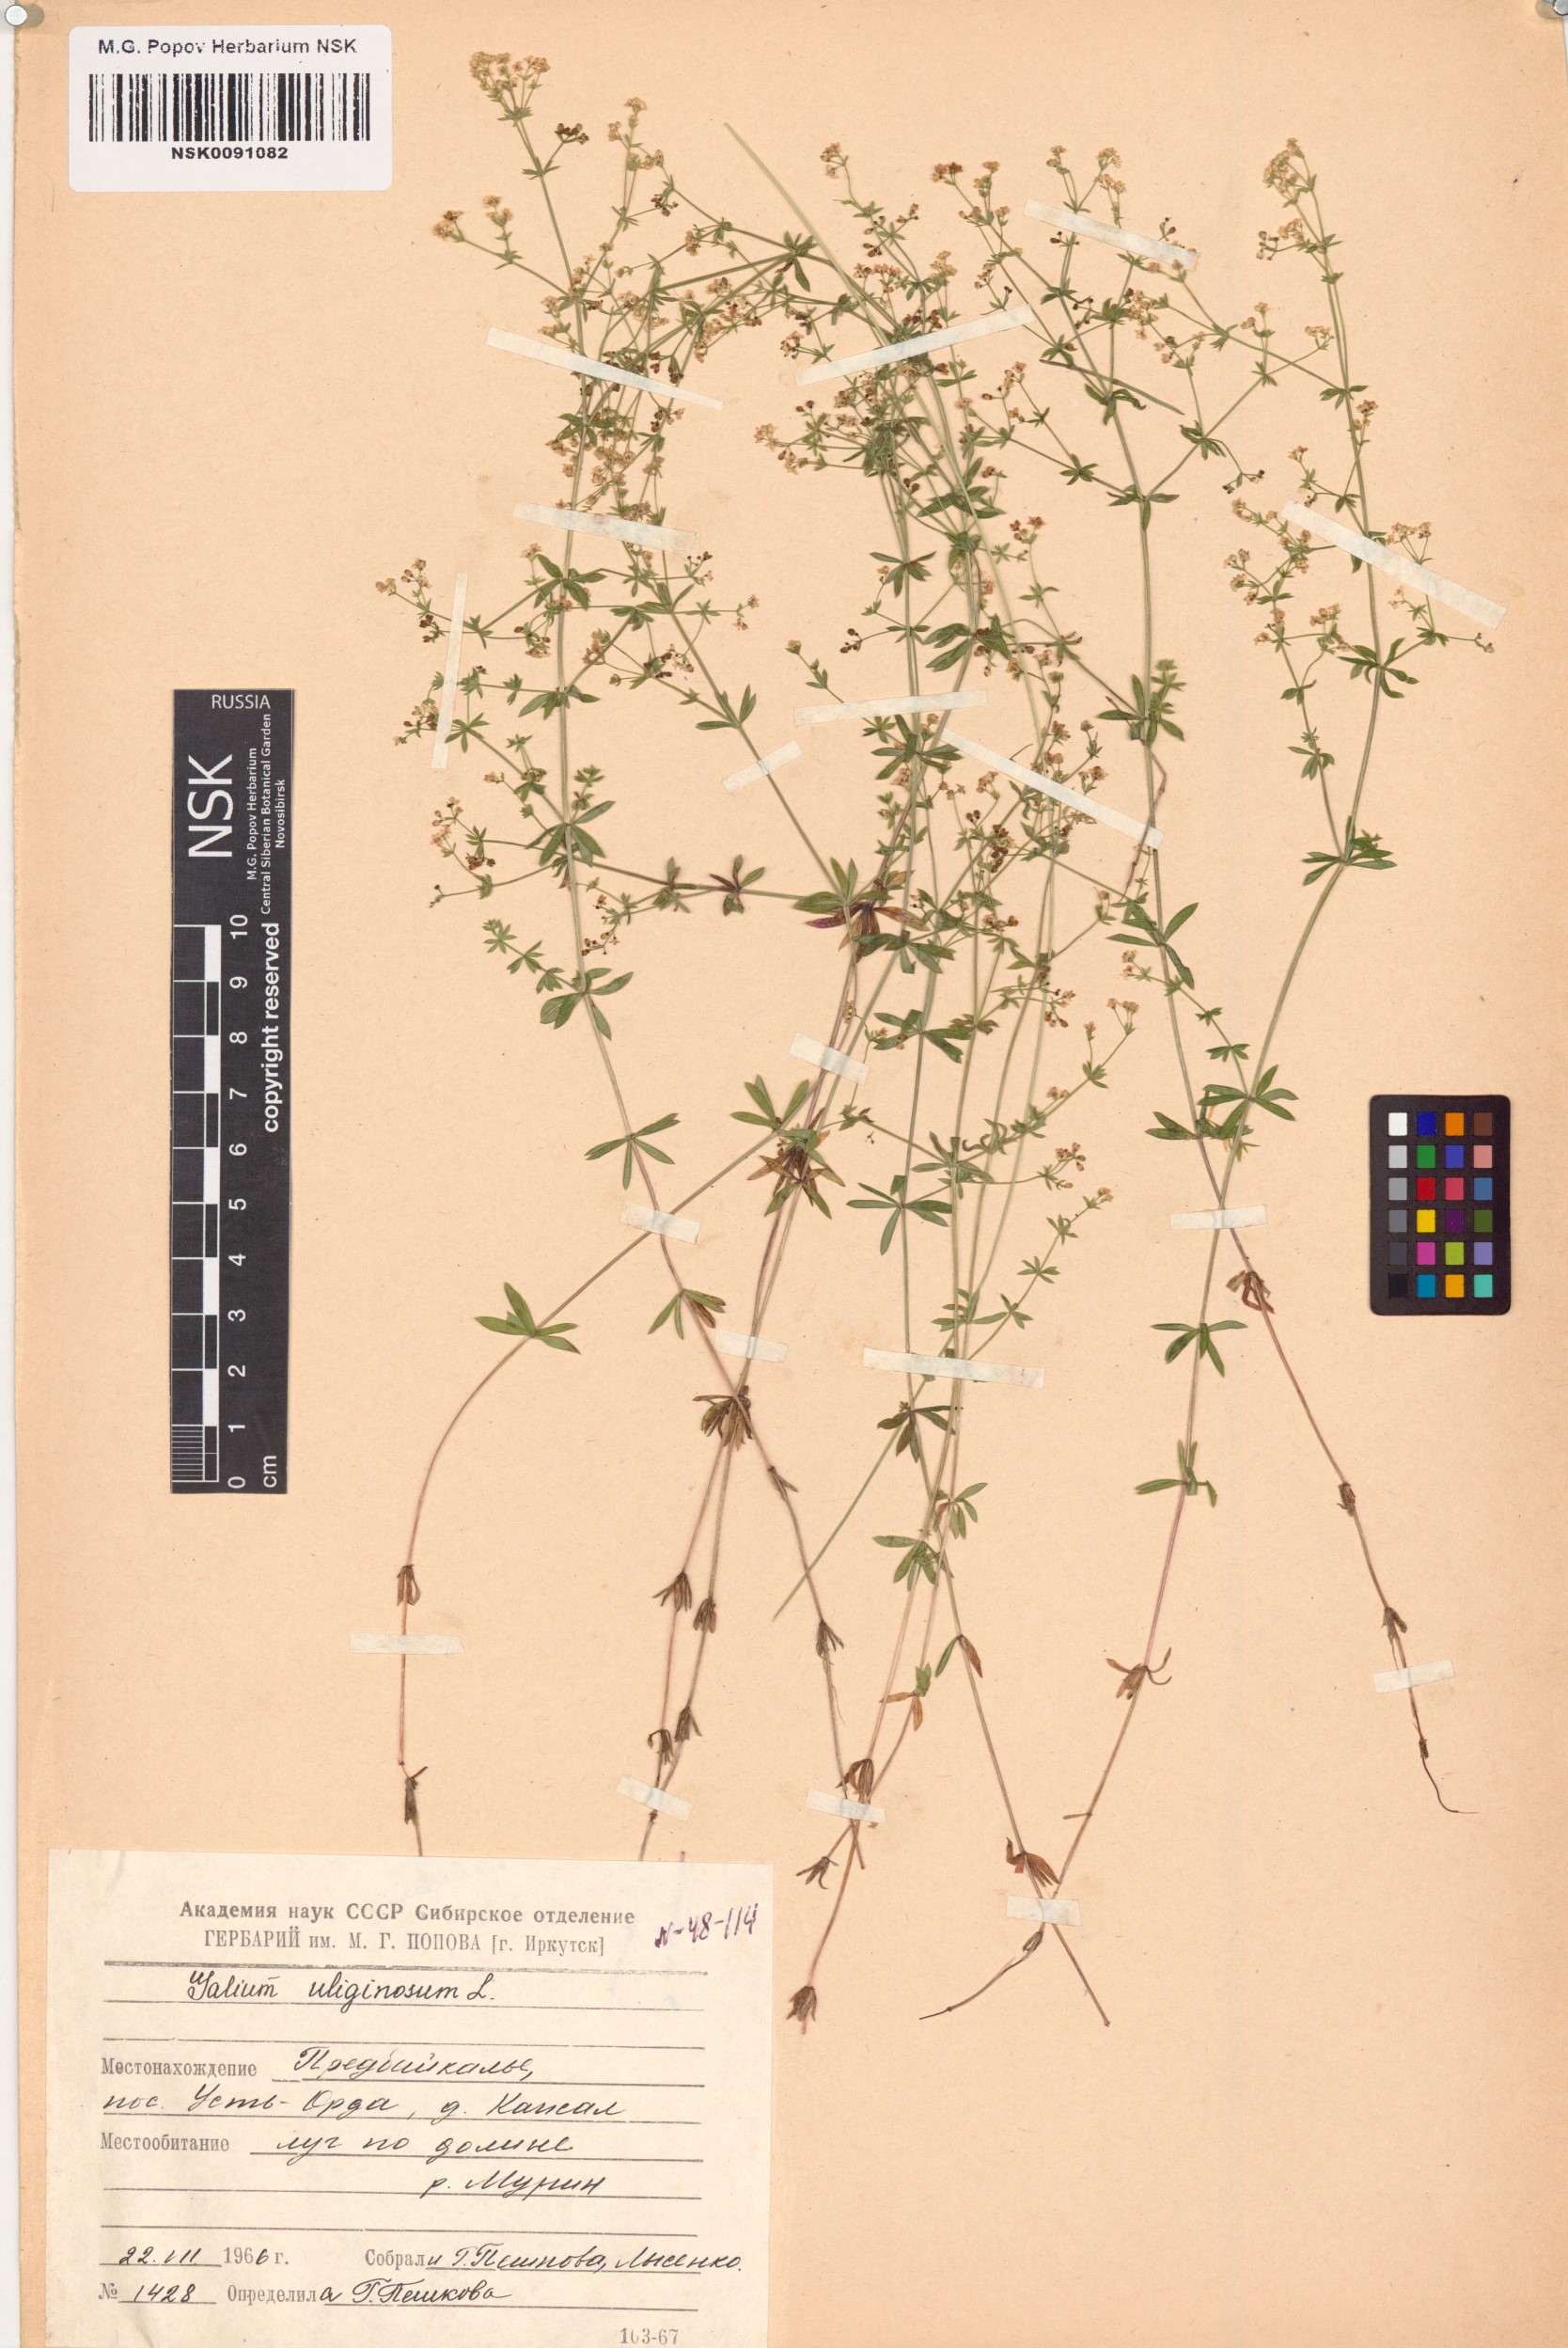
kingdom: Plantae
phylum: Tracheophyta
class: Magnoliopsida
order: Gentianales
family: Rubiaceae
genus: Galium
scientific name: Galium uliginosum
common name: Fen bedstraw
